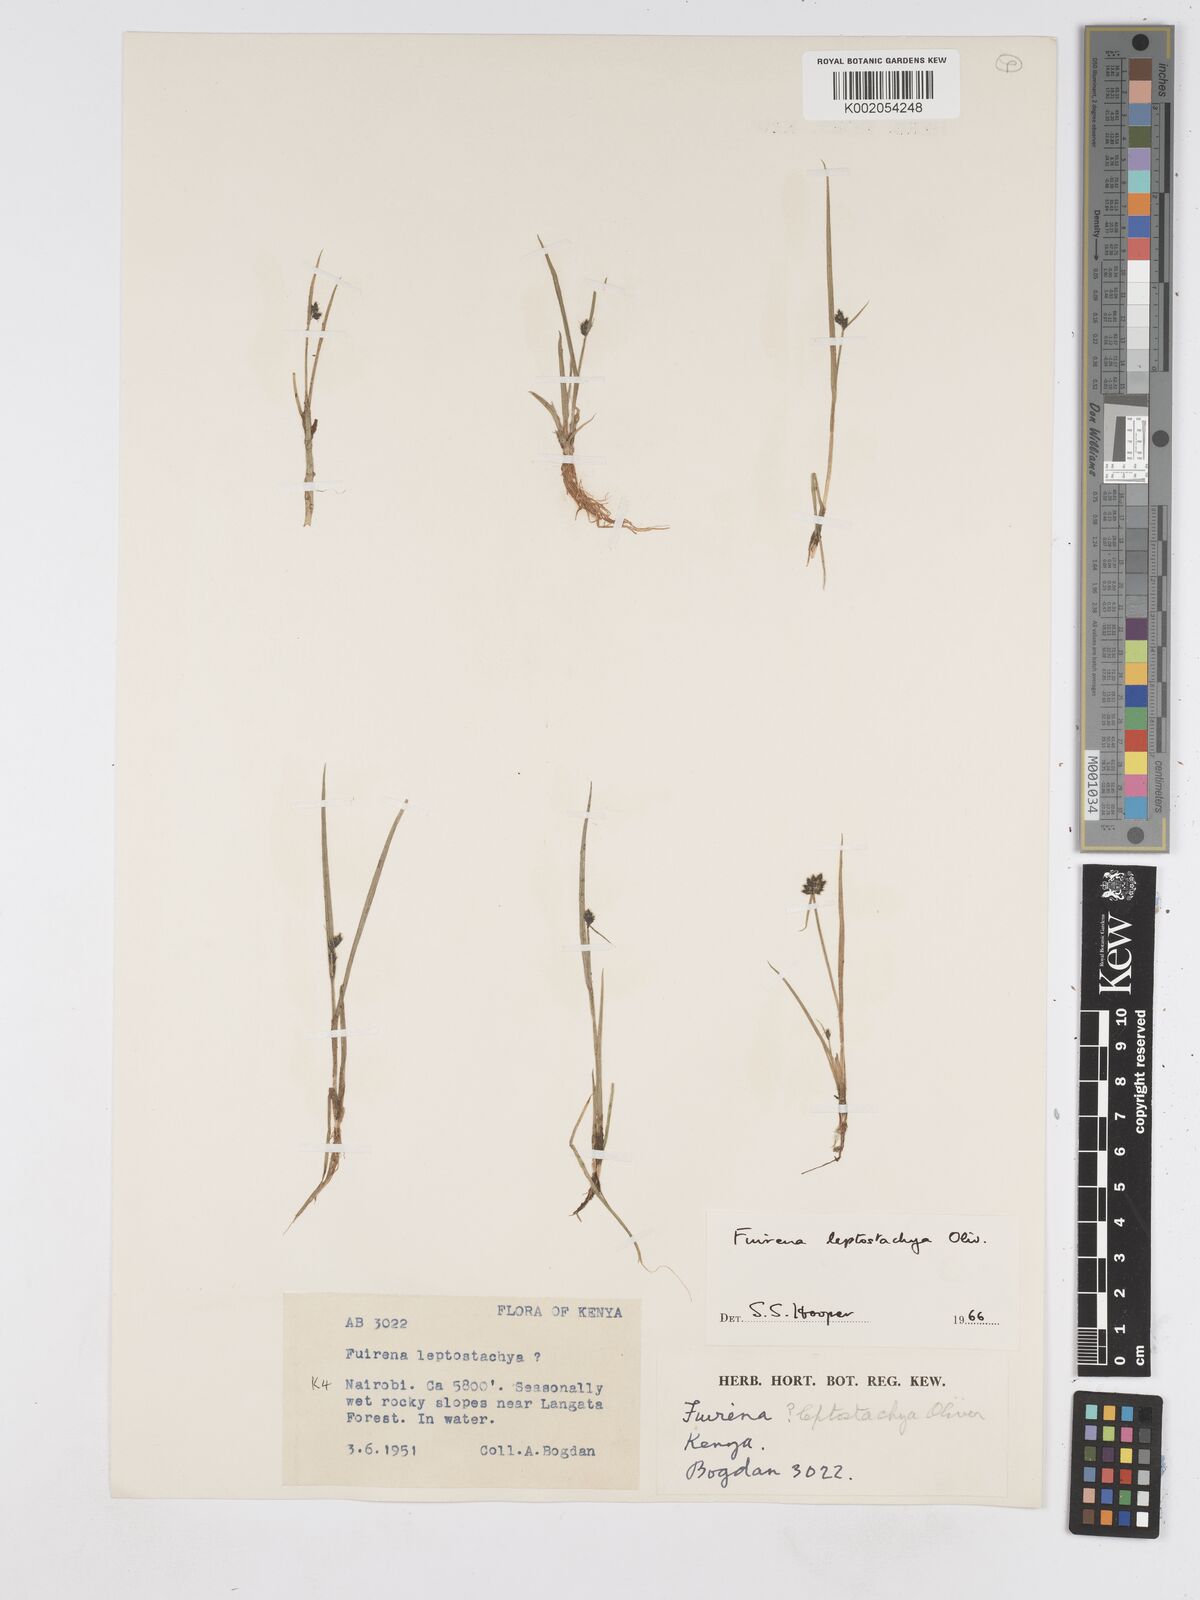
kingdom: Plantae
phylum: Tracheophyta
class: Liliopsida
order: Poales
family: Cyperaceae
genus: Fuirena
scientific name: Fuirena leptostachya
